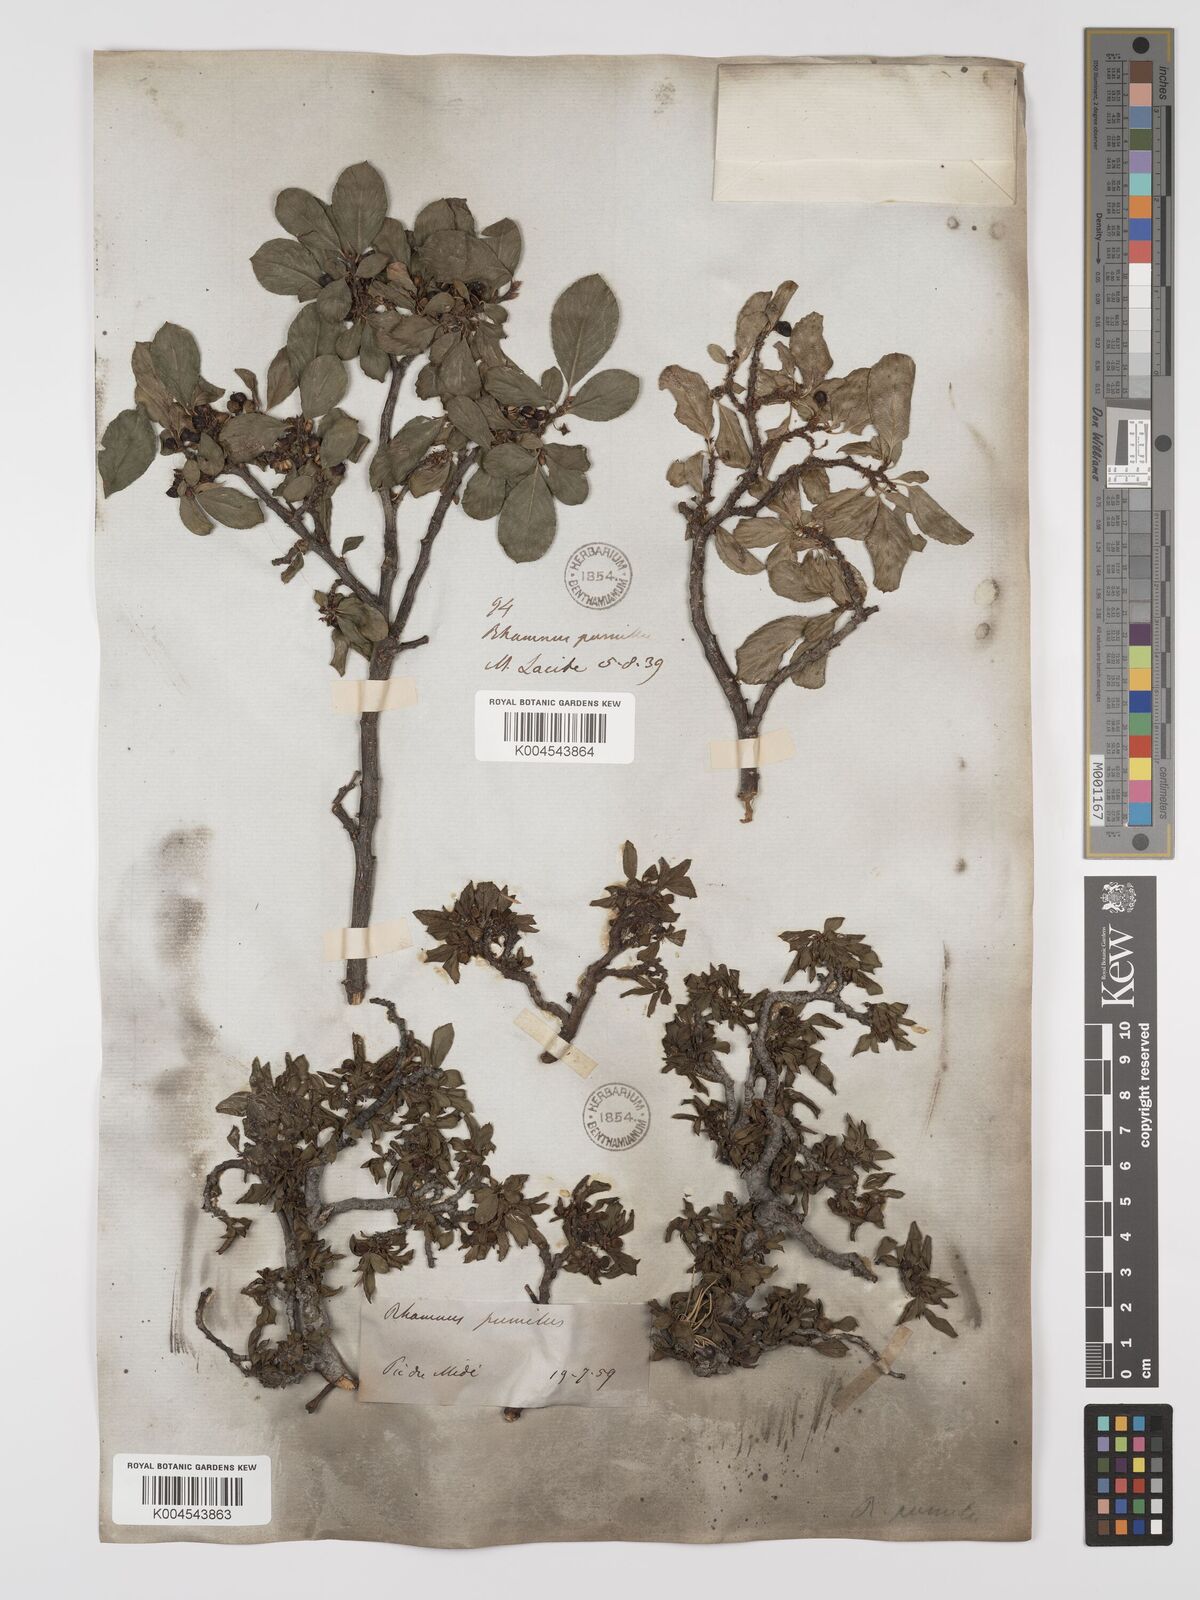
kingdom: Plantae
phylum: Tracheophyta
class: Magnoliopsida
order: Rosales
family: Rhamnaceae
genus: Rhamnus
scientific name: Rhamnus
